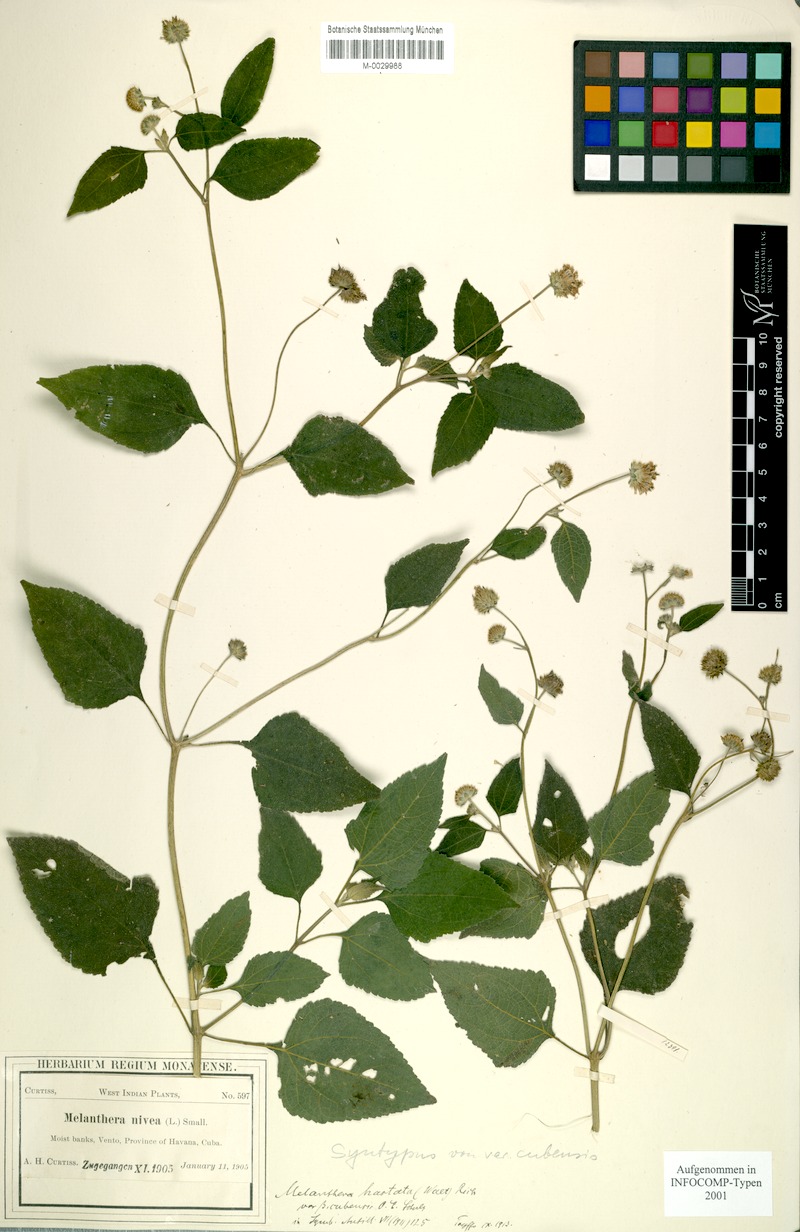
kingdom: Plantae
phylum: Tracheophyta
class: Magnoliopsida
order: Asterales
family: Asteraceae
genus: Melanthera
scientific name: Melanthera nivea
